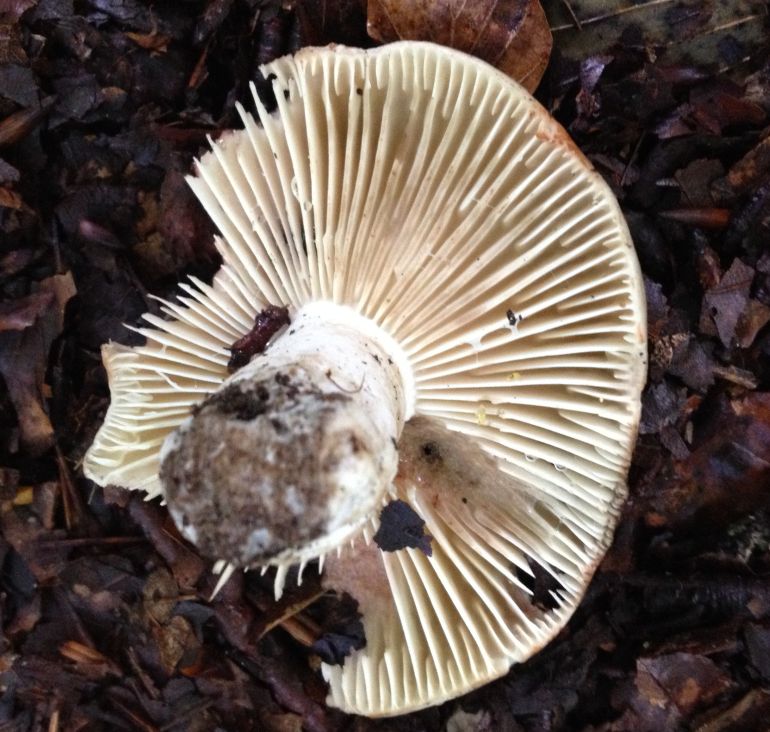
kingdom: Fungi
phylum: Basidiomycota
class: Agaricomycetes
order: Russulales
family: Russulaceae
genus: Russula
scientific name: Russula adusta
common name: sværtende skørhat
